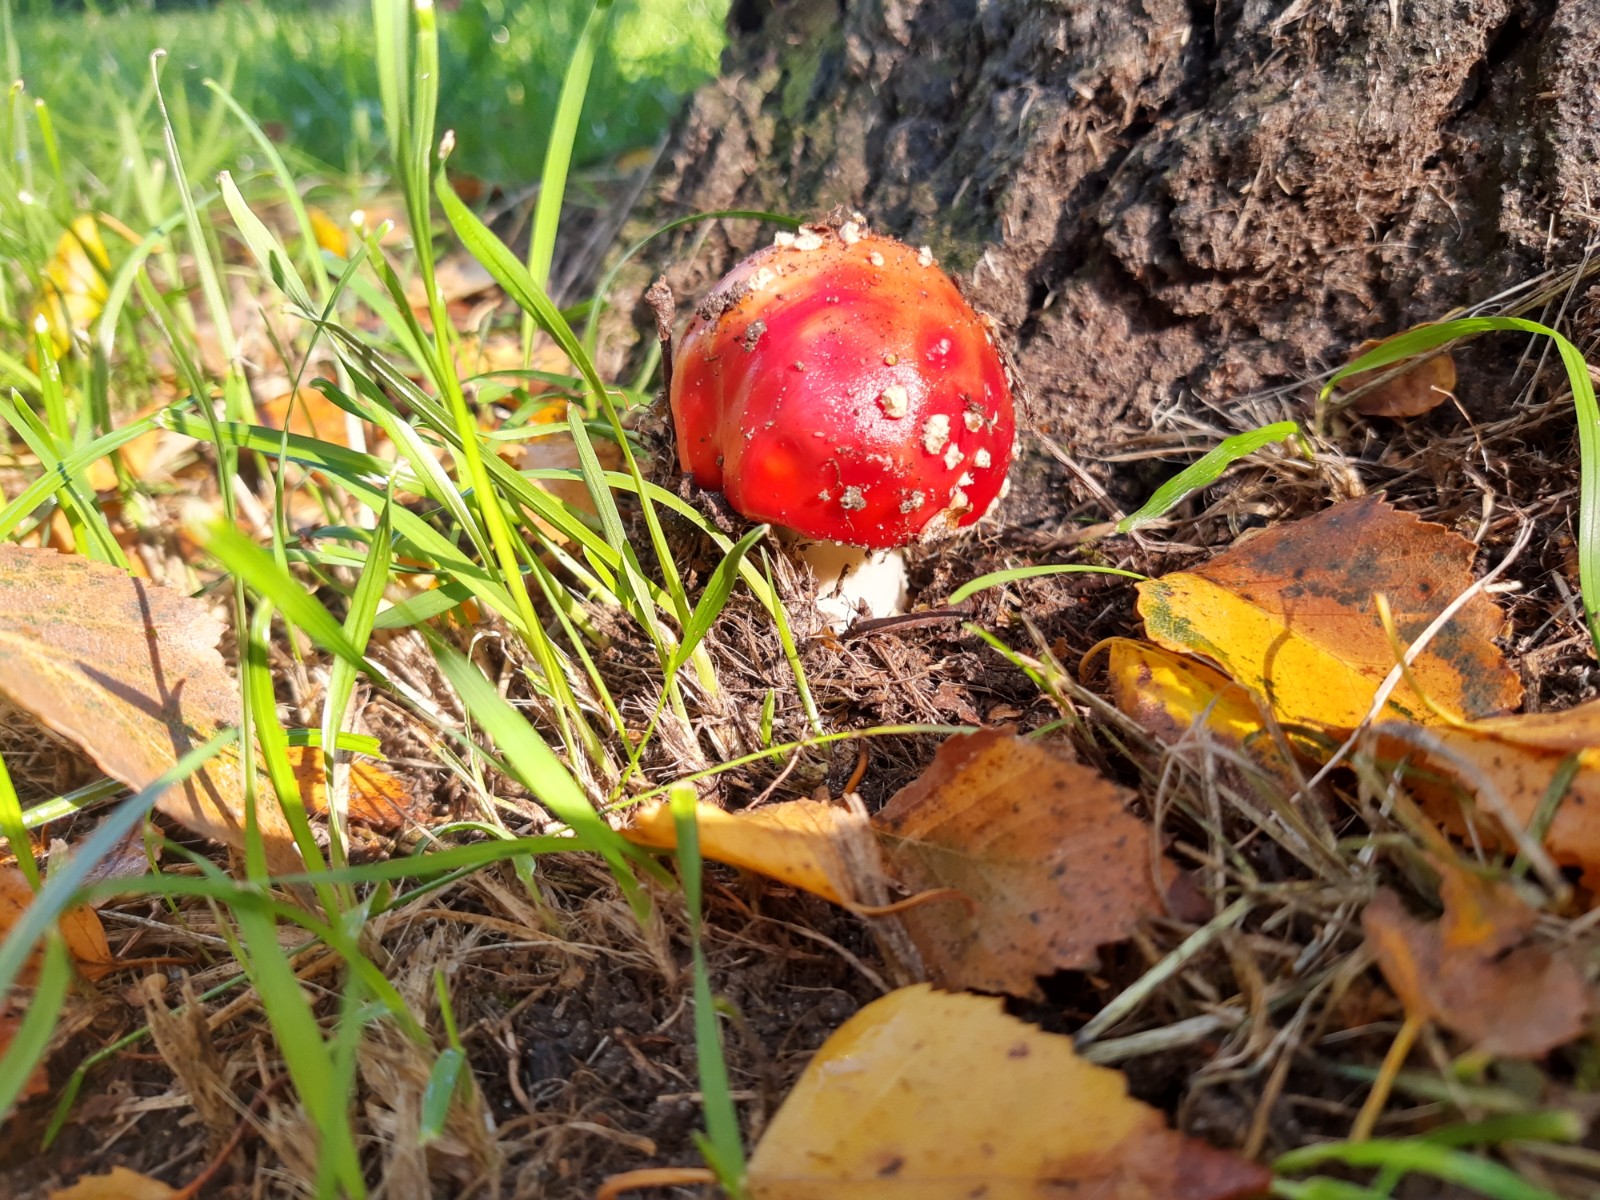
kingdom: Fungi
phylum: Basidiomycota
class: Agaricomycetes
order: Agaricales
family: Amanitaceae
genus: Amanita
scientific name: Amanita muscaria
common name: rød fluesvamp
